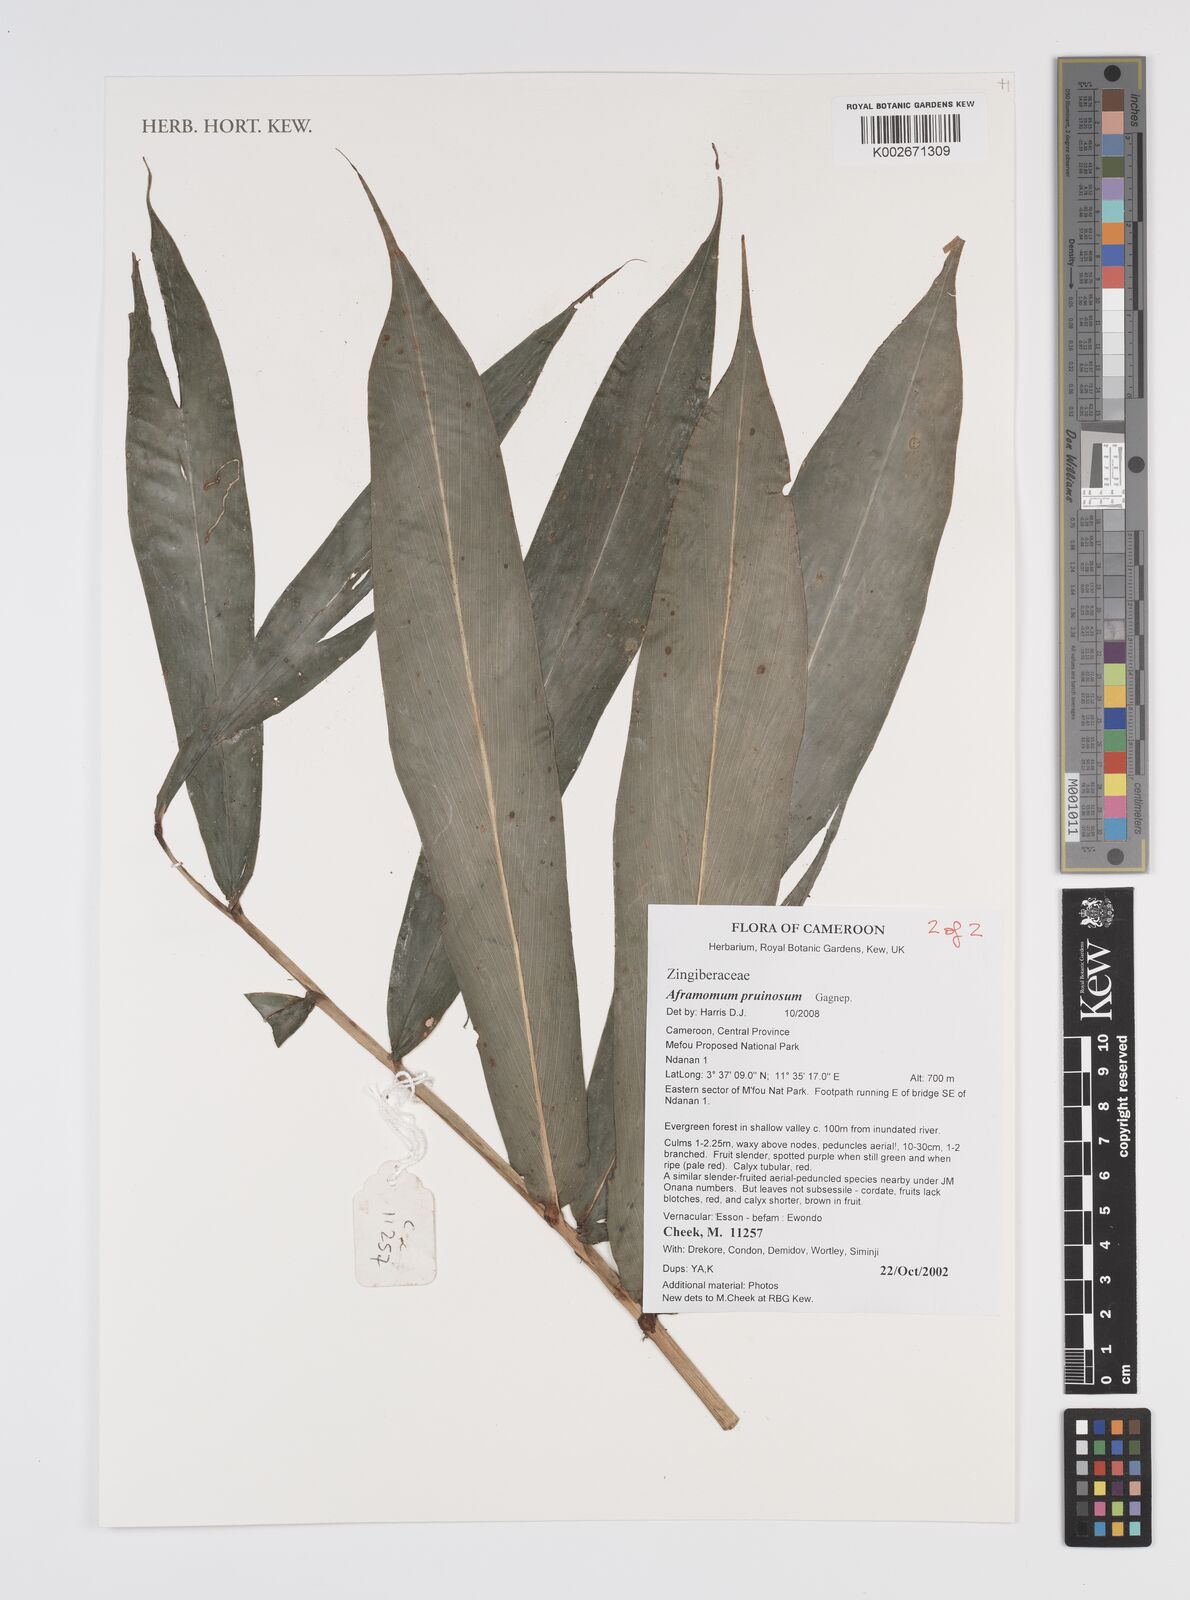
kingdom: Plantae
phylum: Tracheophyta
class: Liliopsida
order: Zingiberales
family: Zingiberaceae
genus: Aframomum
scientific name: Aframomum letestuanum
